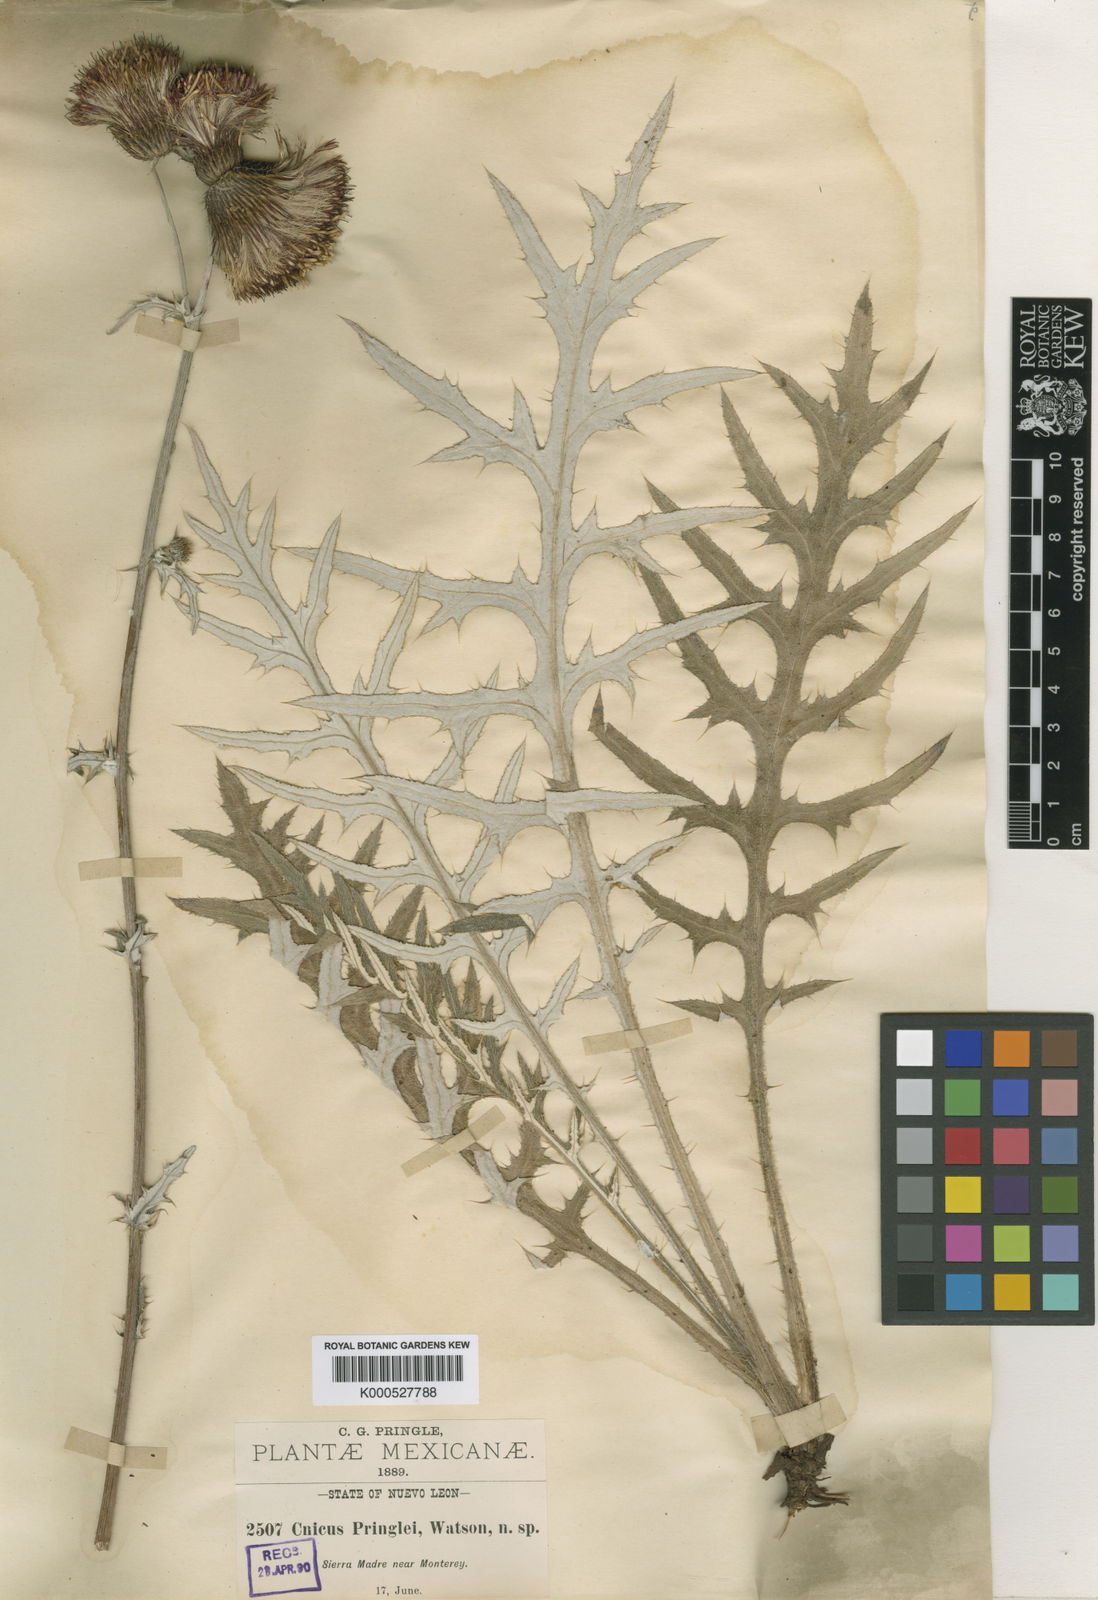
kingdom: Plantae
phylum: Tracheophyta
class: Magnoliopsida
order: Asterales
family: Asteraceae
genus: Cirsium
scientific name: Cirsium pringlei
